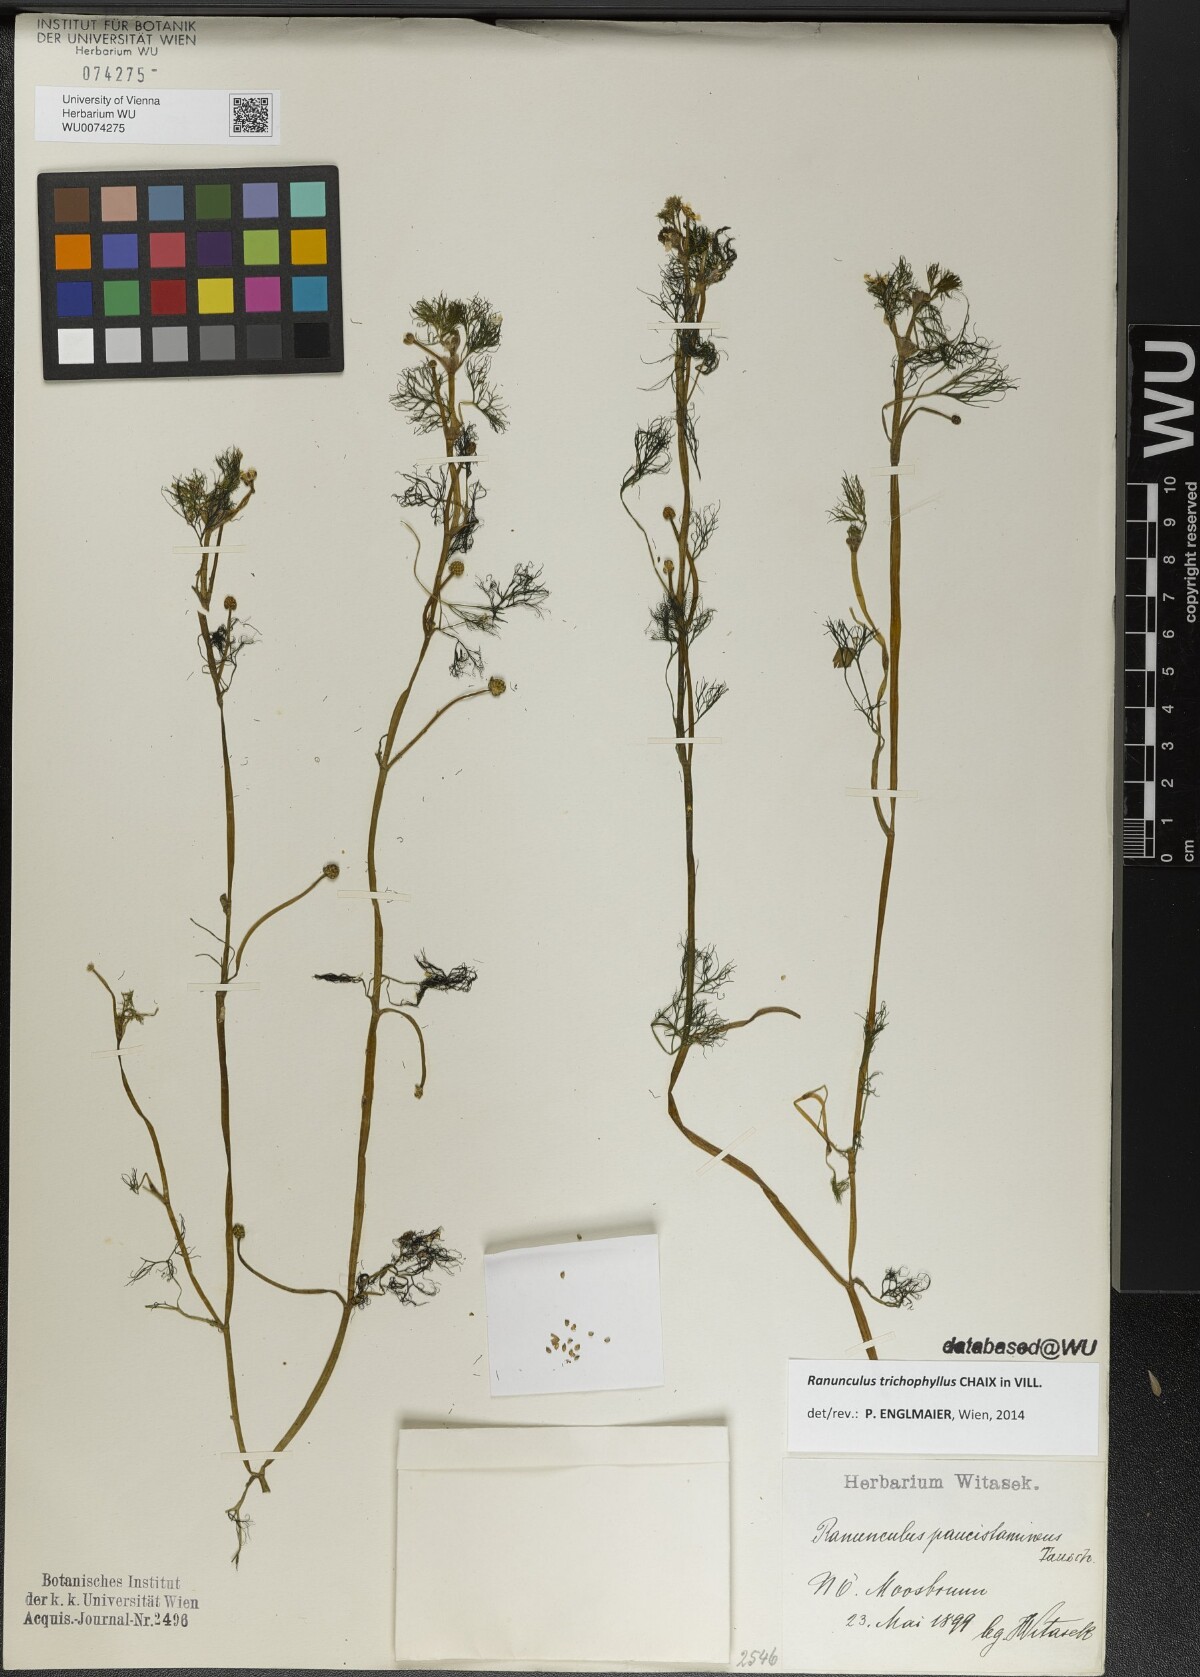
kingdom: Plantae
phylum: Tracheophyta
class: Magnoliopsida
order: Ranunculales
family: Ranunculaceae
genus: Ranunculus
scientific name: Ranunculus trichophyllus
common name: Thread-leaved water-crowfoot
